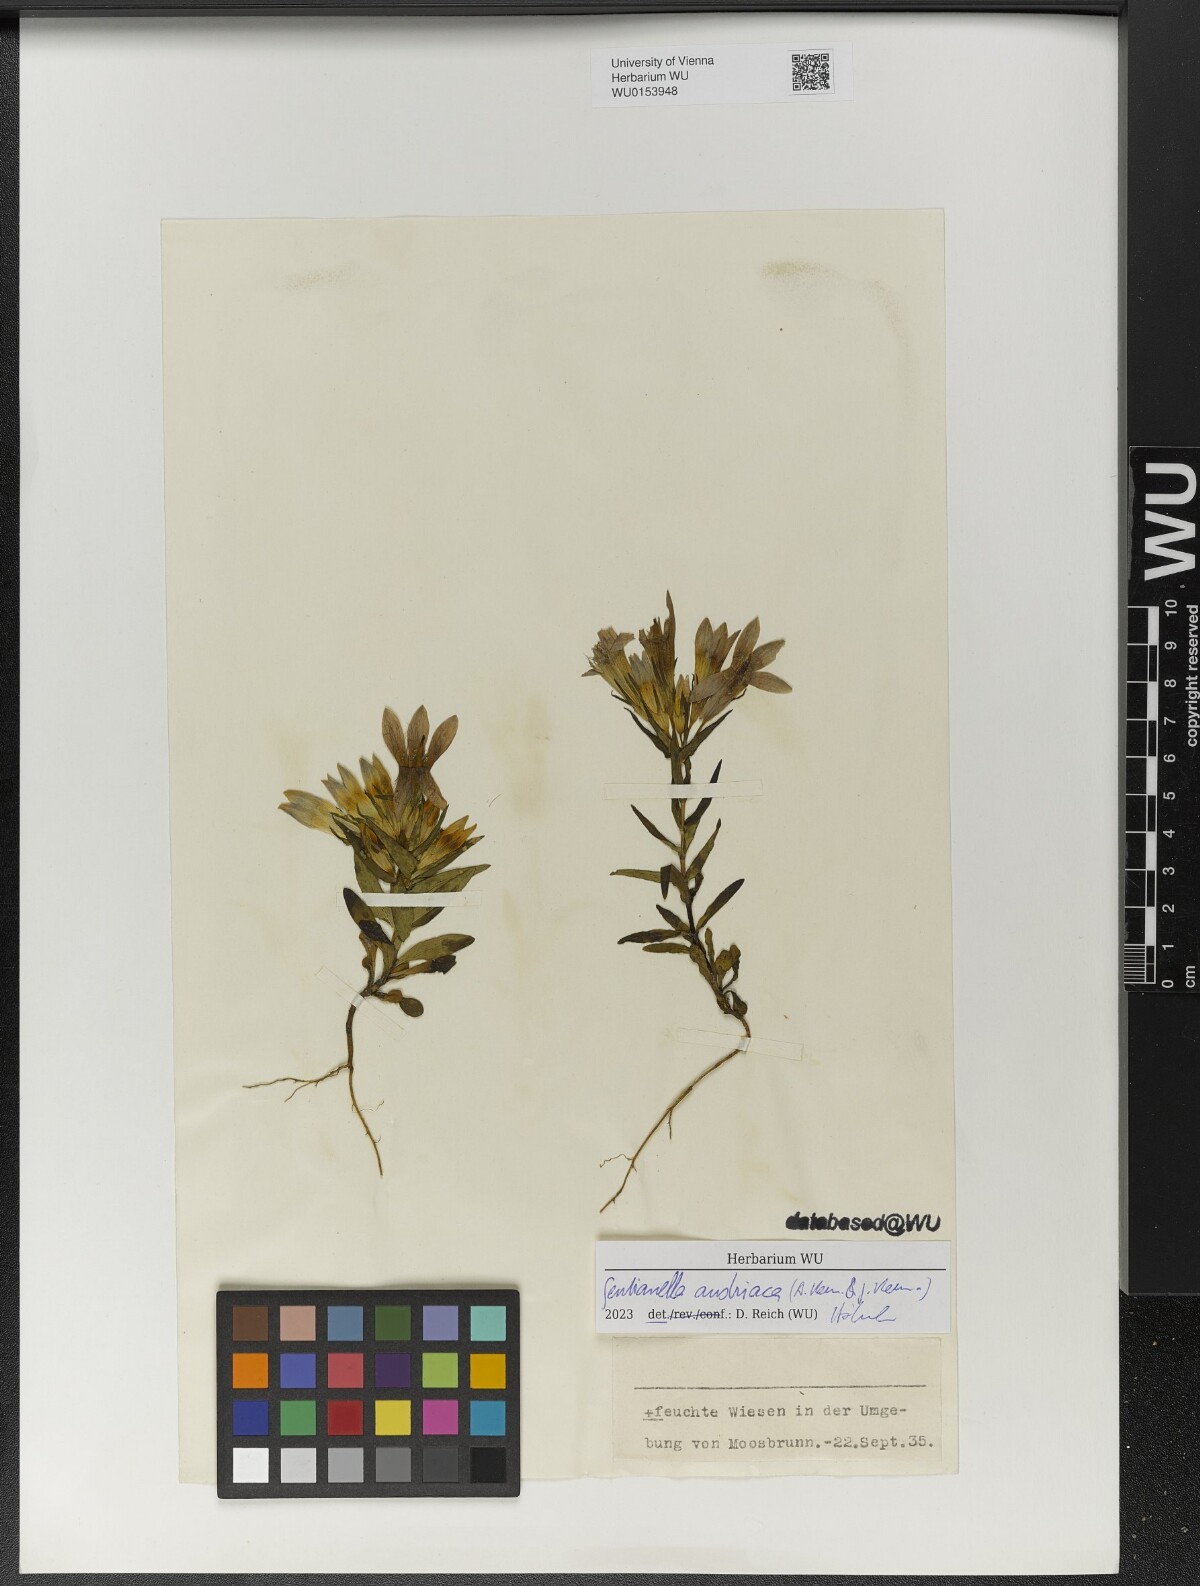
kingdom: Plantae
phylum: Tracheophyta
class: Magnoliopsida
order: Gentianales
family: Gentianaceae
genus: Gentianella
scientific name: Gentianella austriaca
